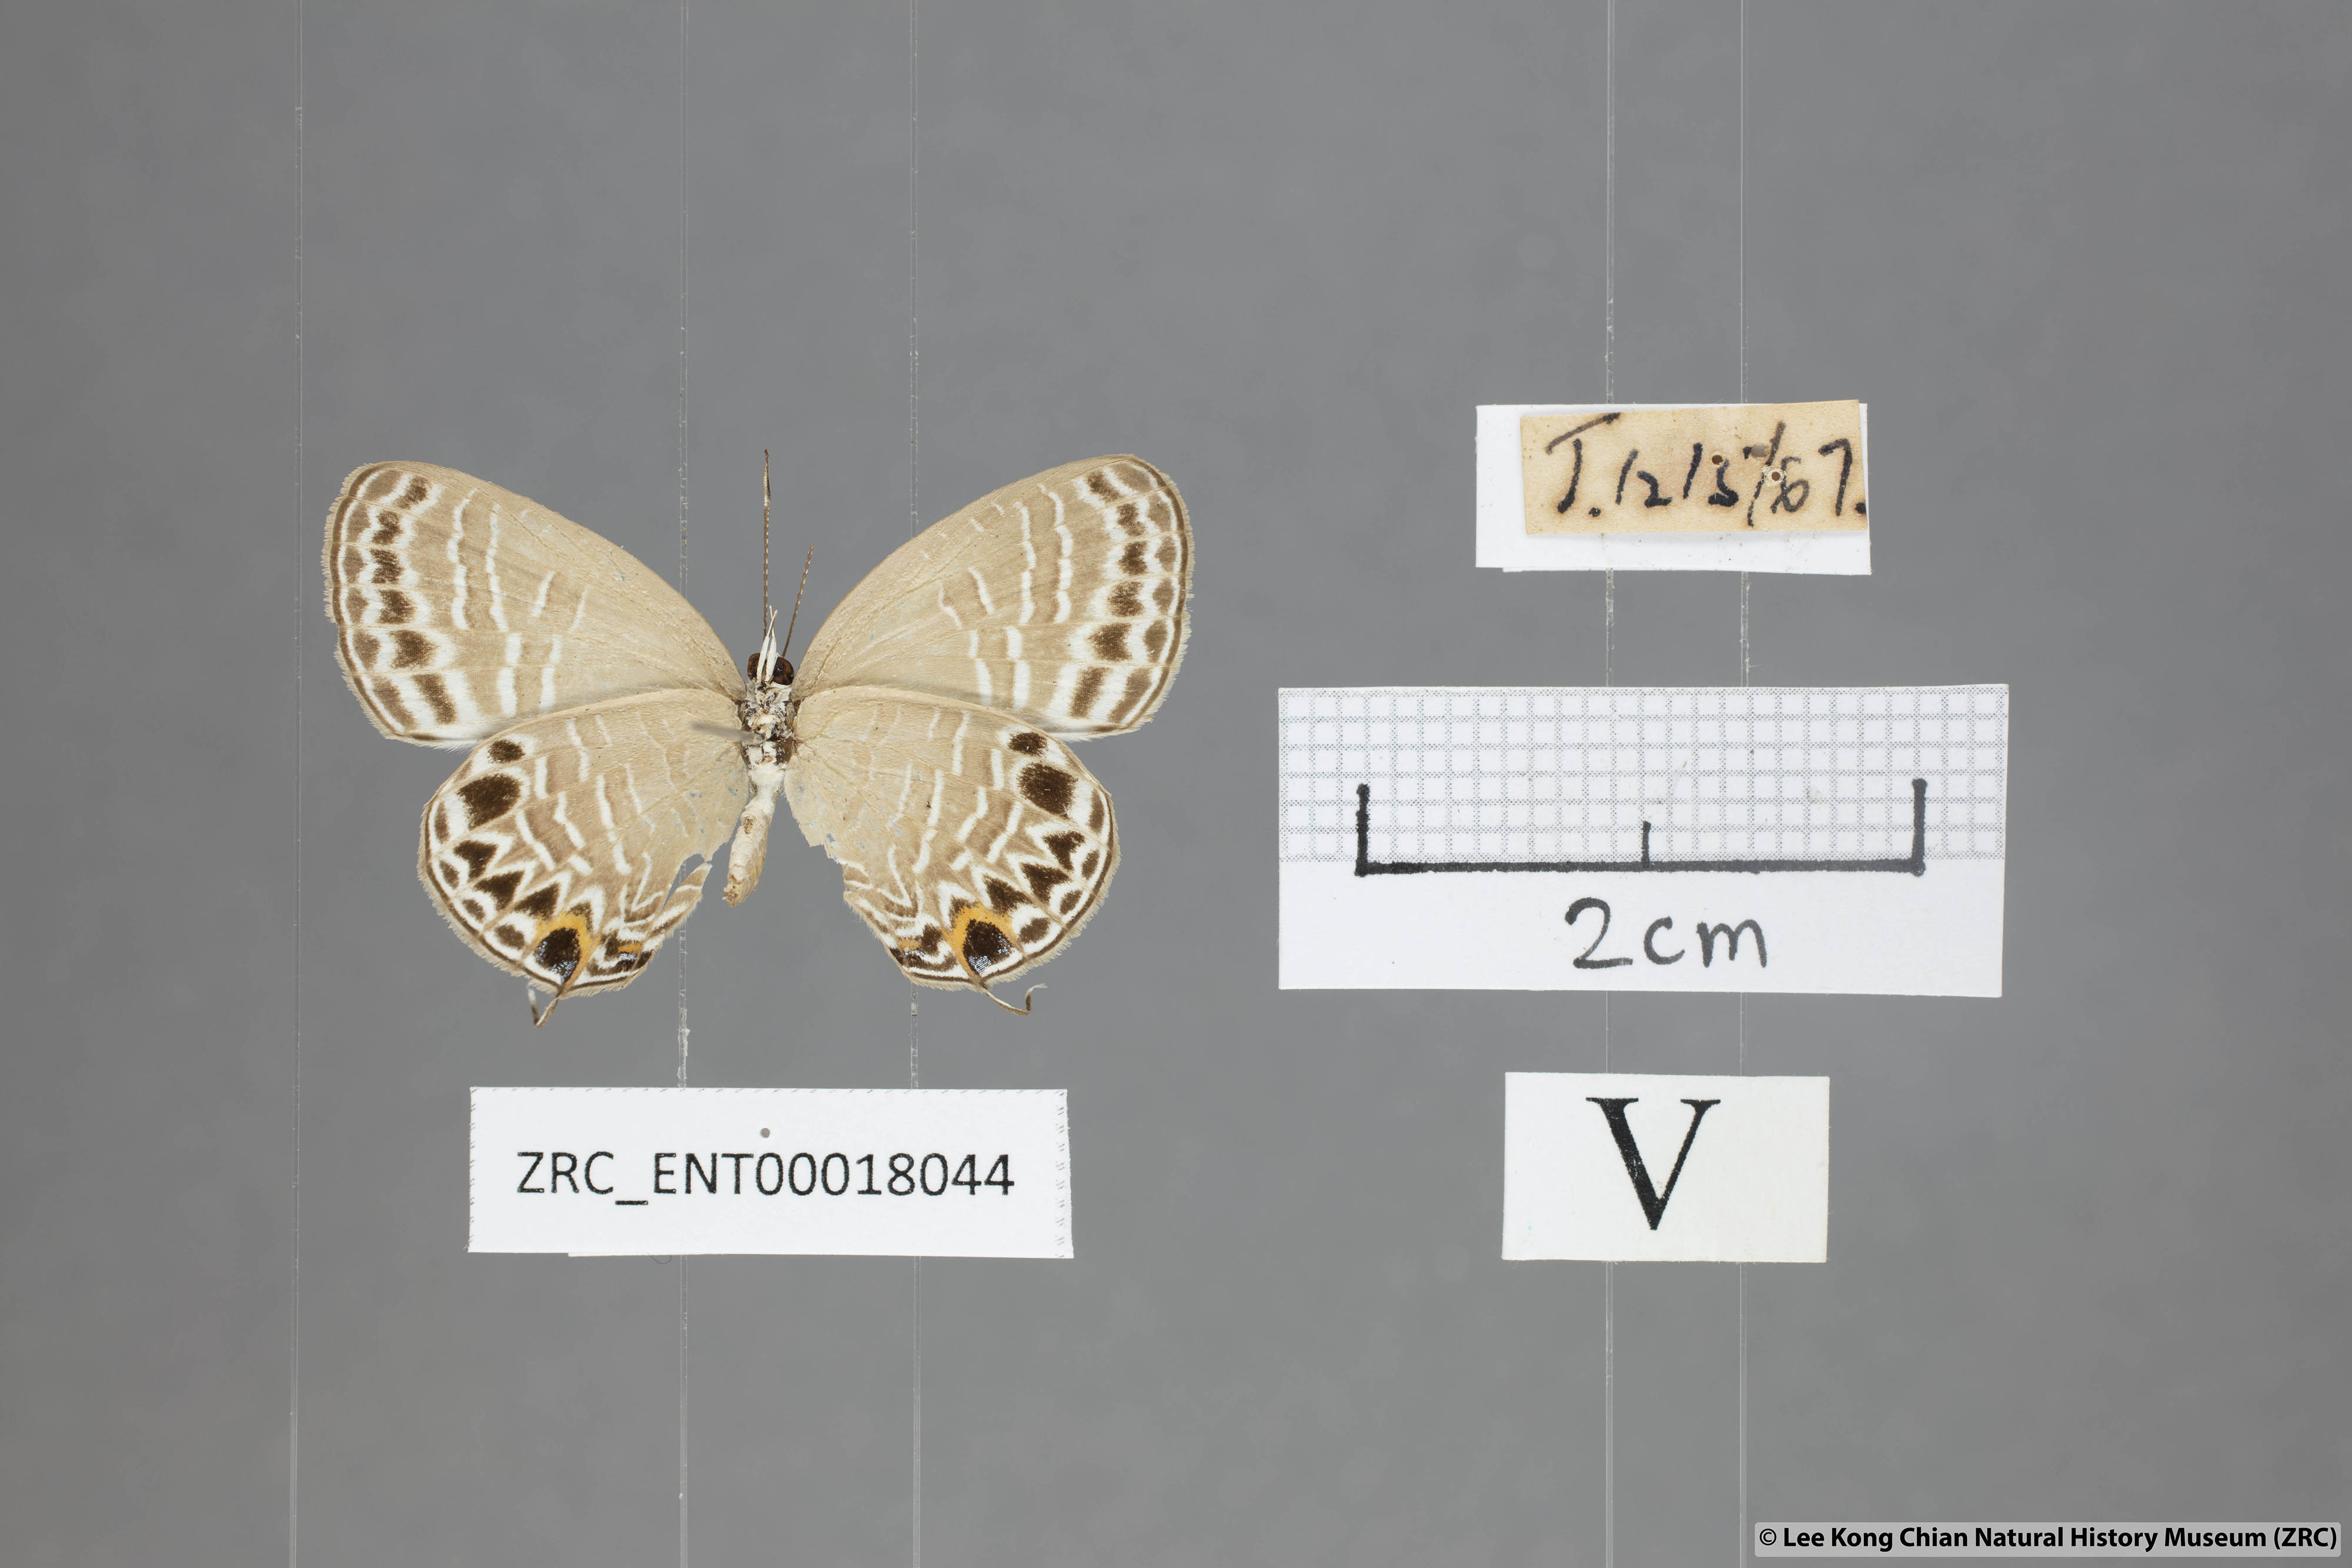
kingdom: Animalia
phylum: Arthropoda
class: Insecta
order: Lepidoptera
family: Lycaenidae
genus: Jamides
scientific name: Jamides aratus
